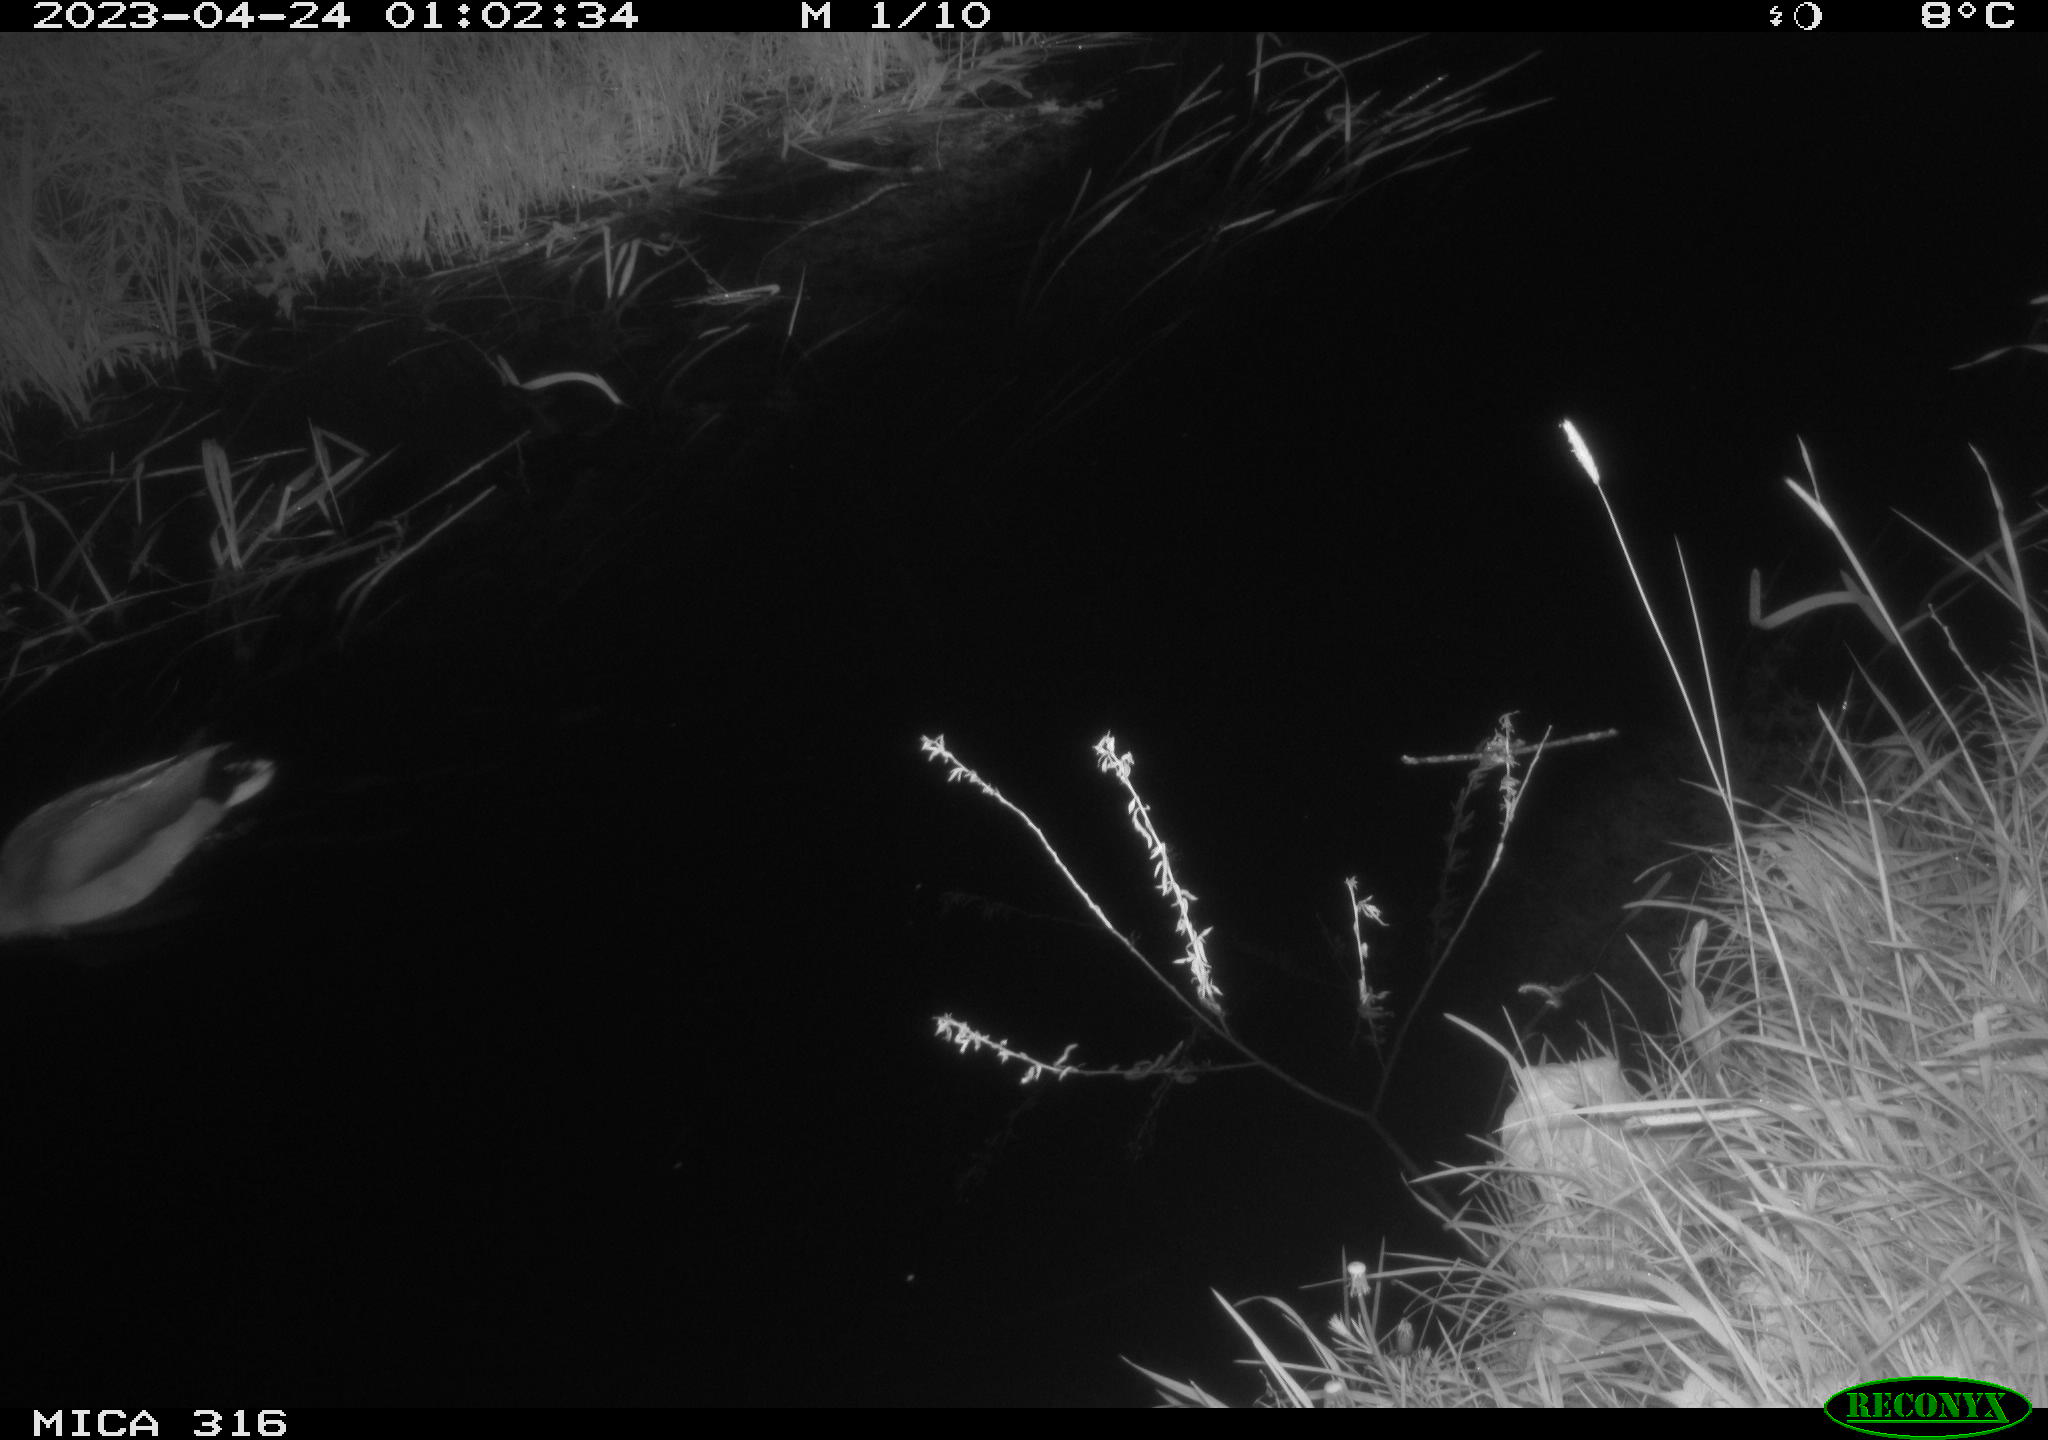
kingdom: Animalia
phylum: Chordata
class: Aves
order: Anseriformes
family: Anatidae
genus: Anas
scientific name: Anas
